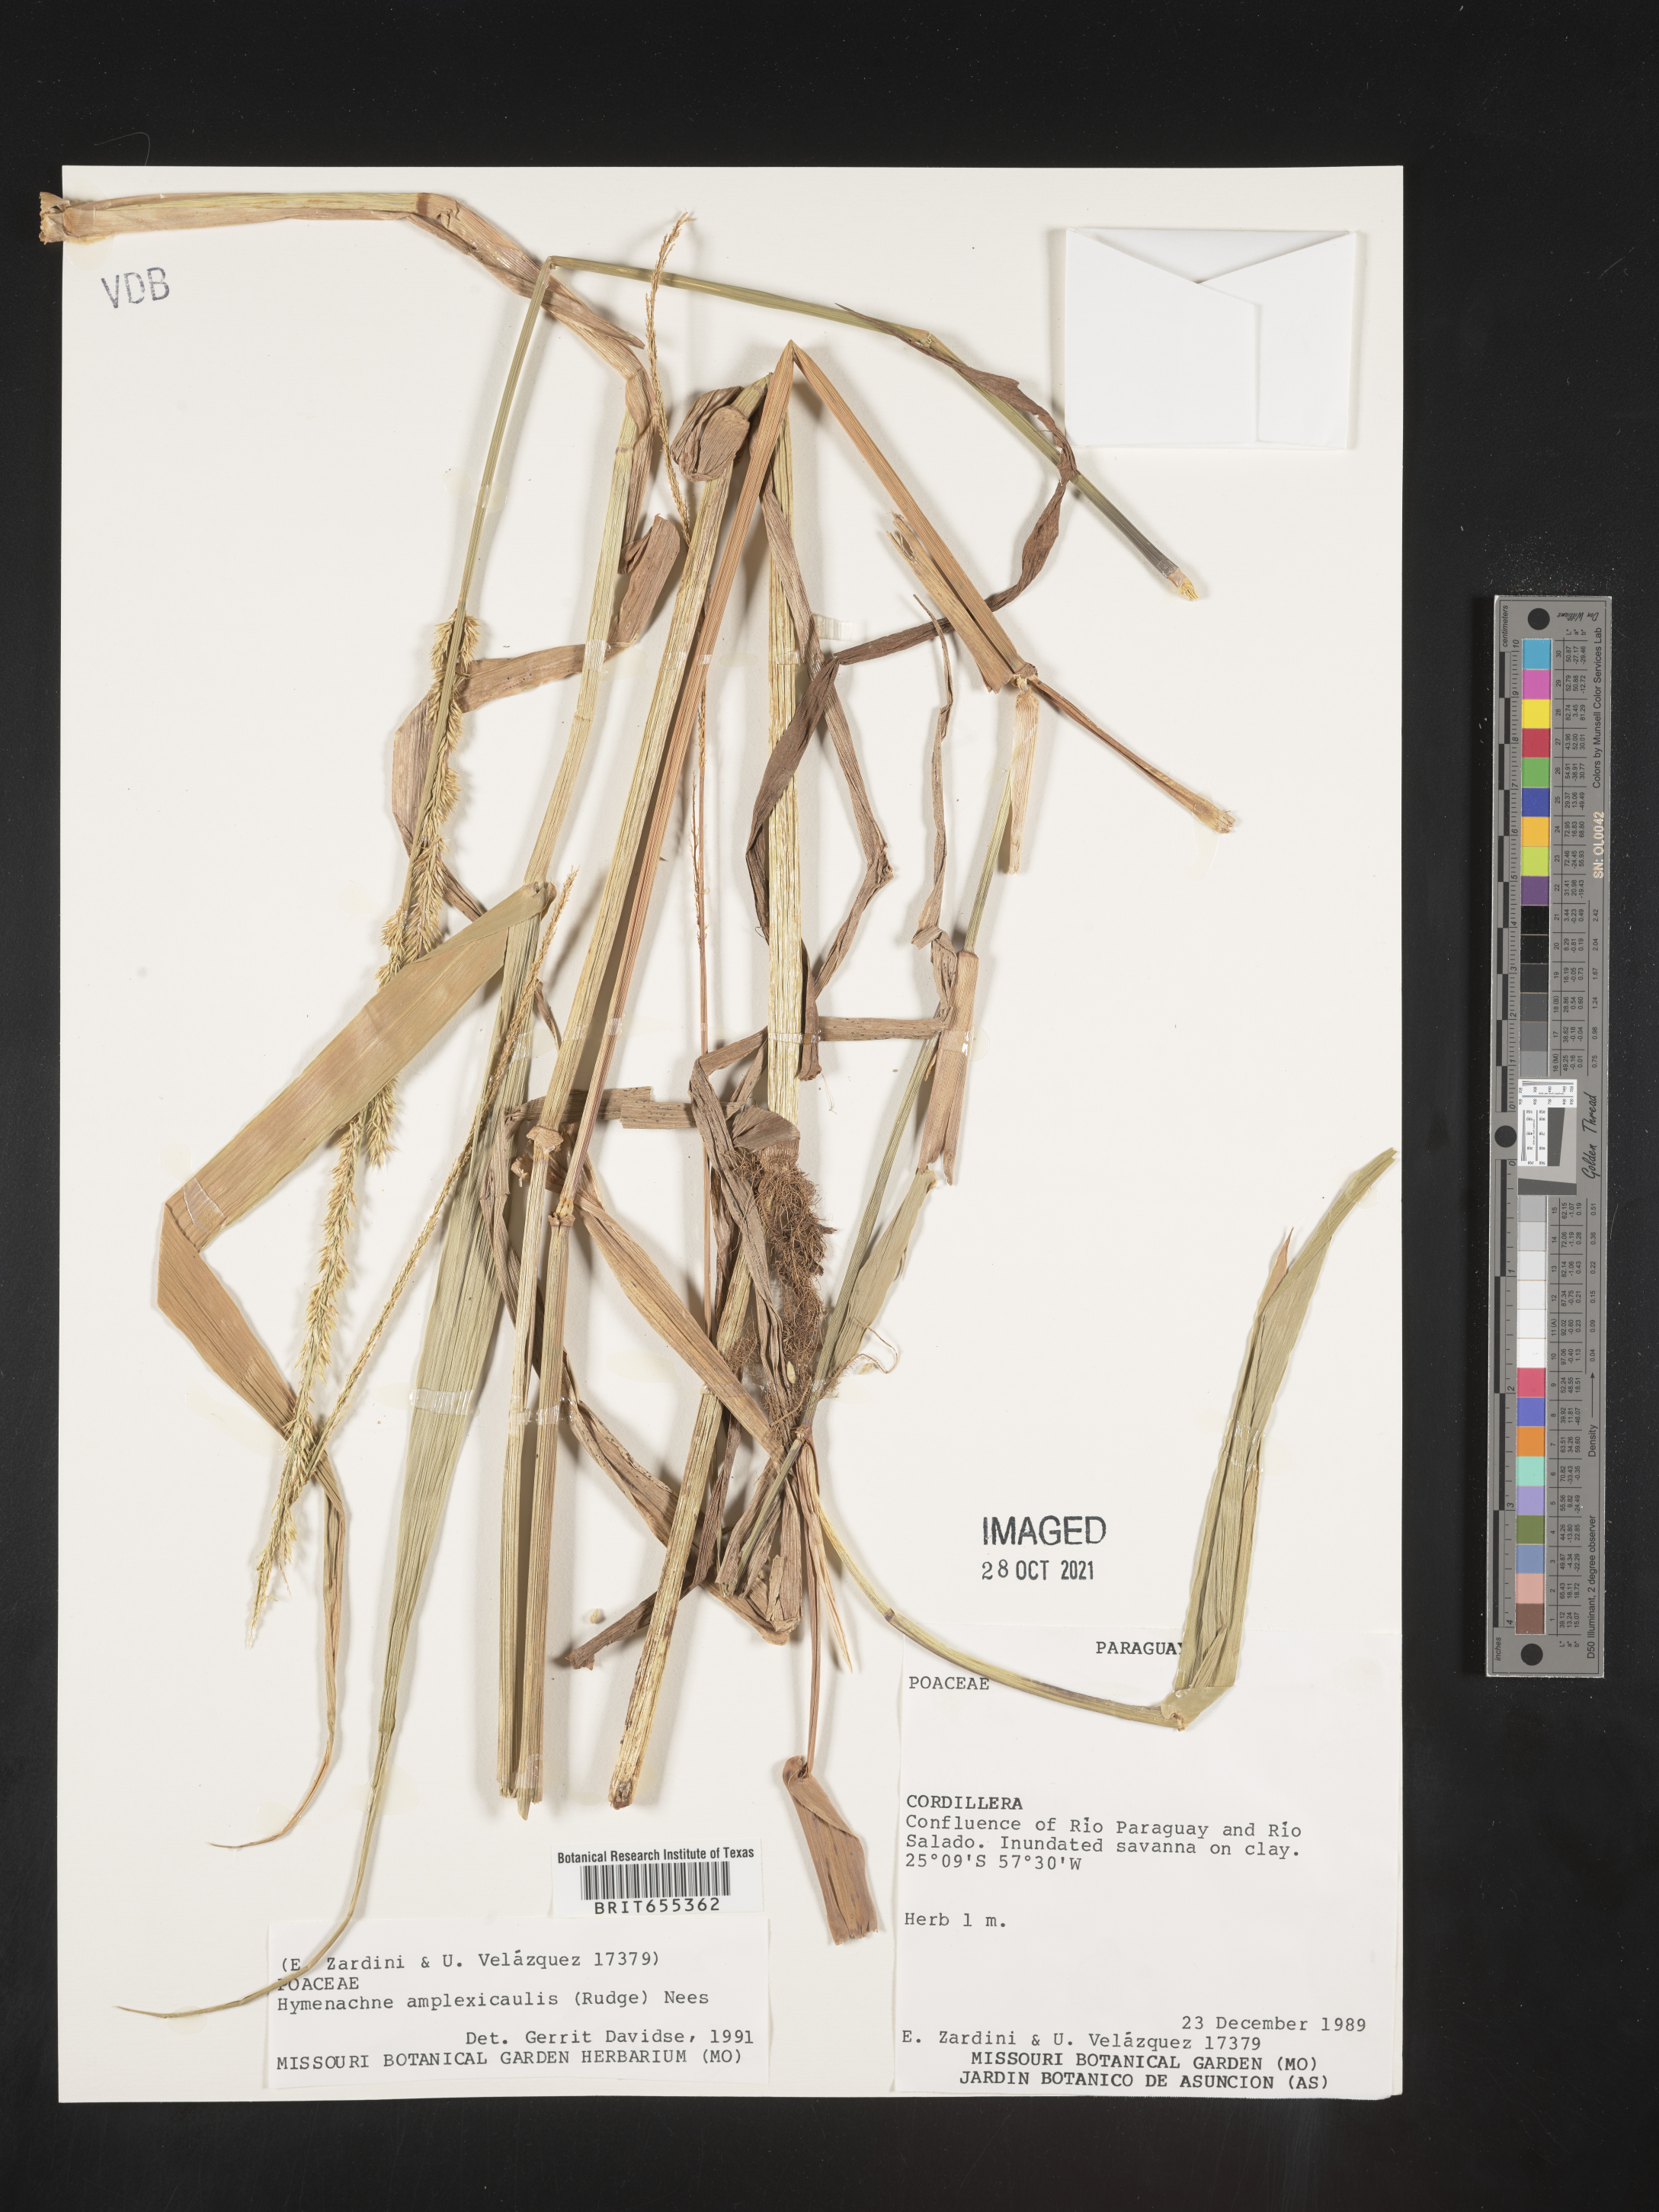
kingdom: Plantae
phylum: Tracheophyta
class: Liliopsida
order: Poales
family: Poaceae
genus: Hymenachne
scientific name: Hymenachne
